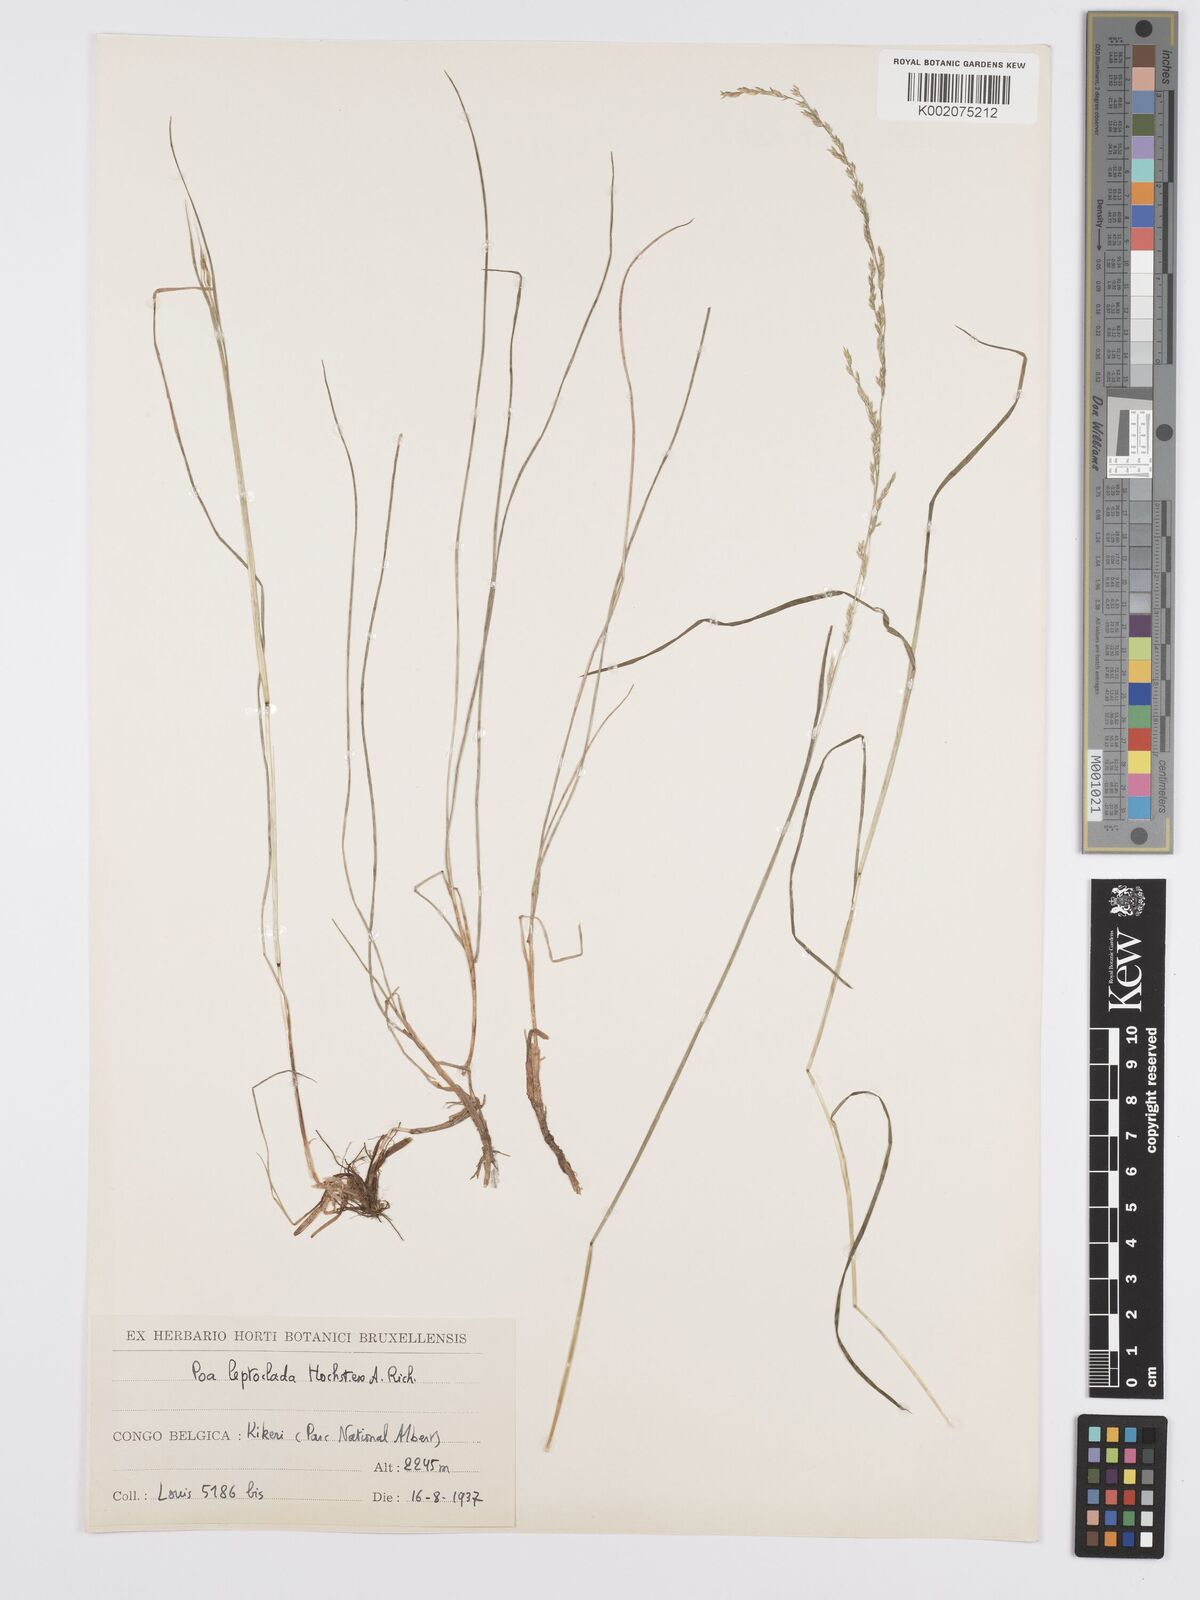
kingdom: Plantae
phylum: Tracheophyta
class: Liliopsida
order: Poales
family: Poaceae
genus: Poa
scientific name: Poa leptoclada
